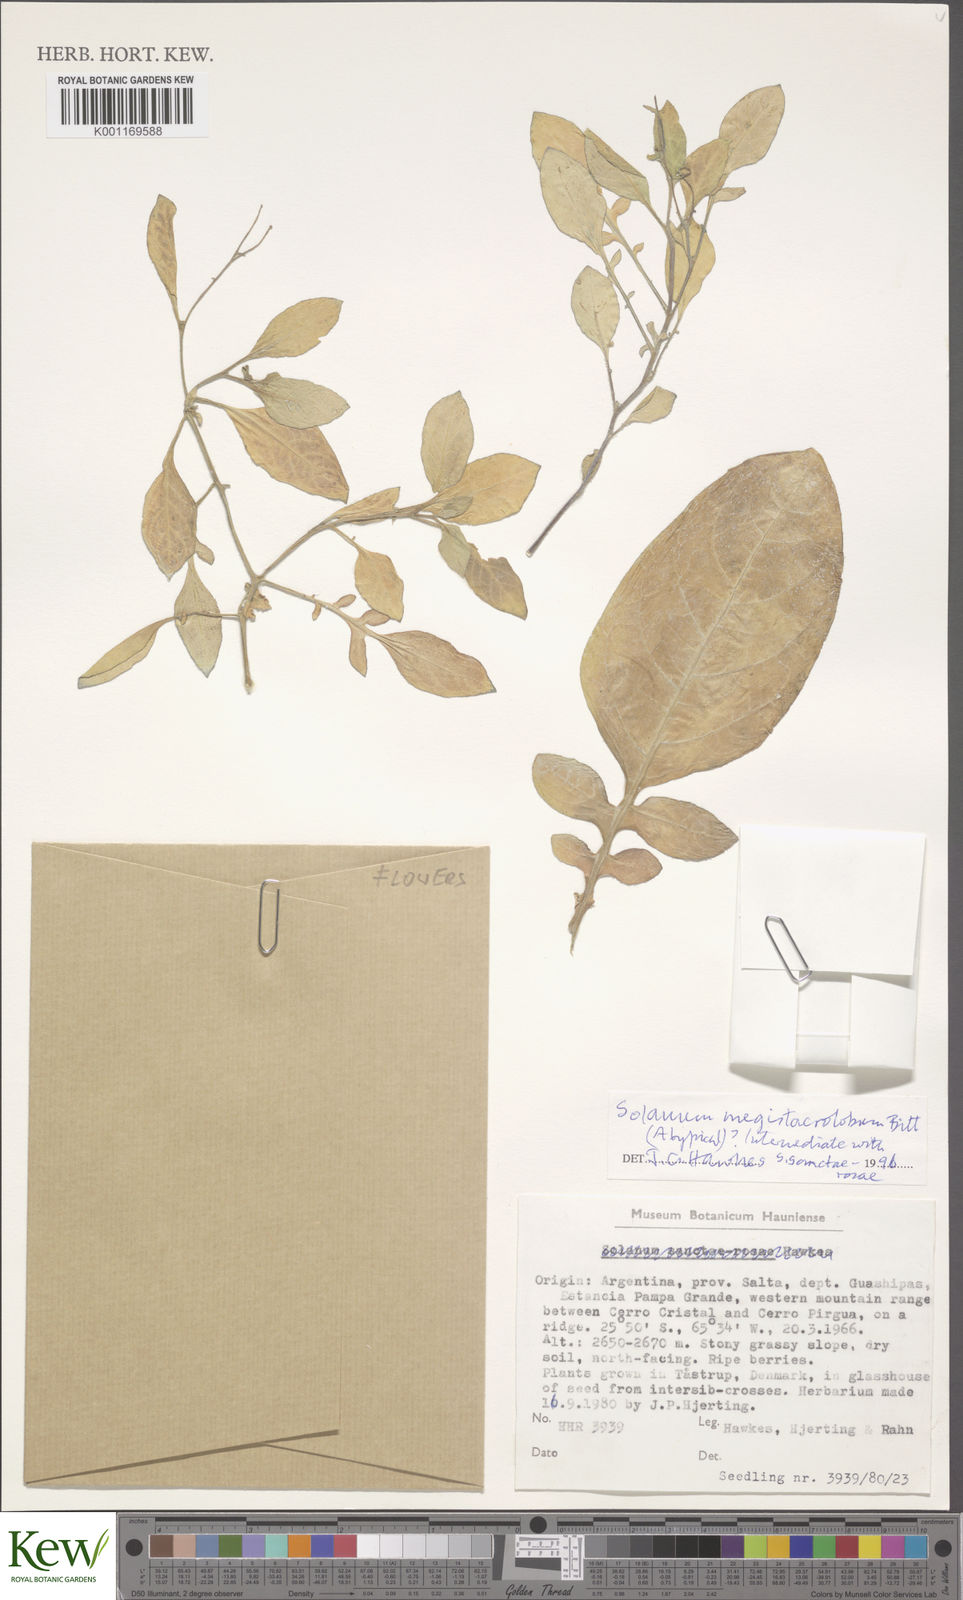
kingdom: Plantae
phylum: Tracheophyta
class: Magnoliopsida
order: Solanales
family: Solanaceae
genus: Solanum
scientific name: Solanum boliviense
